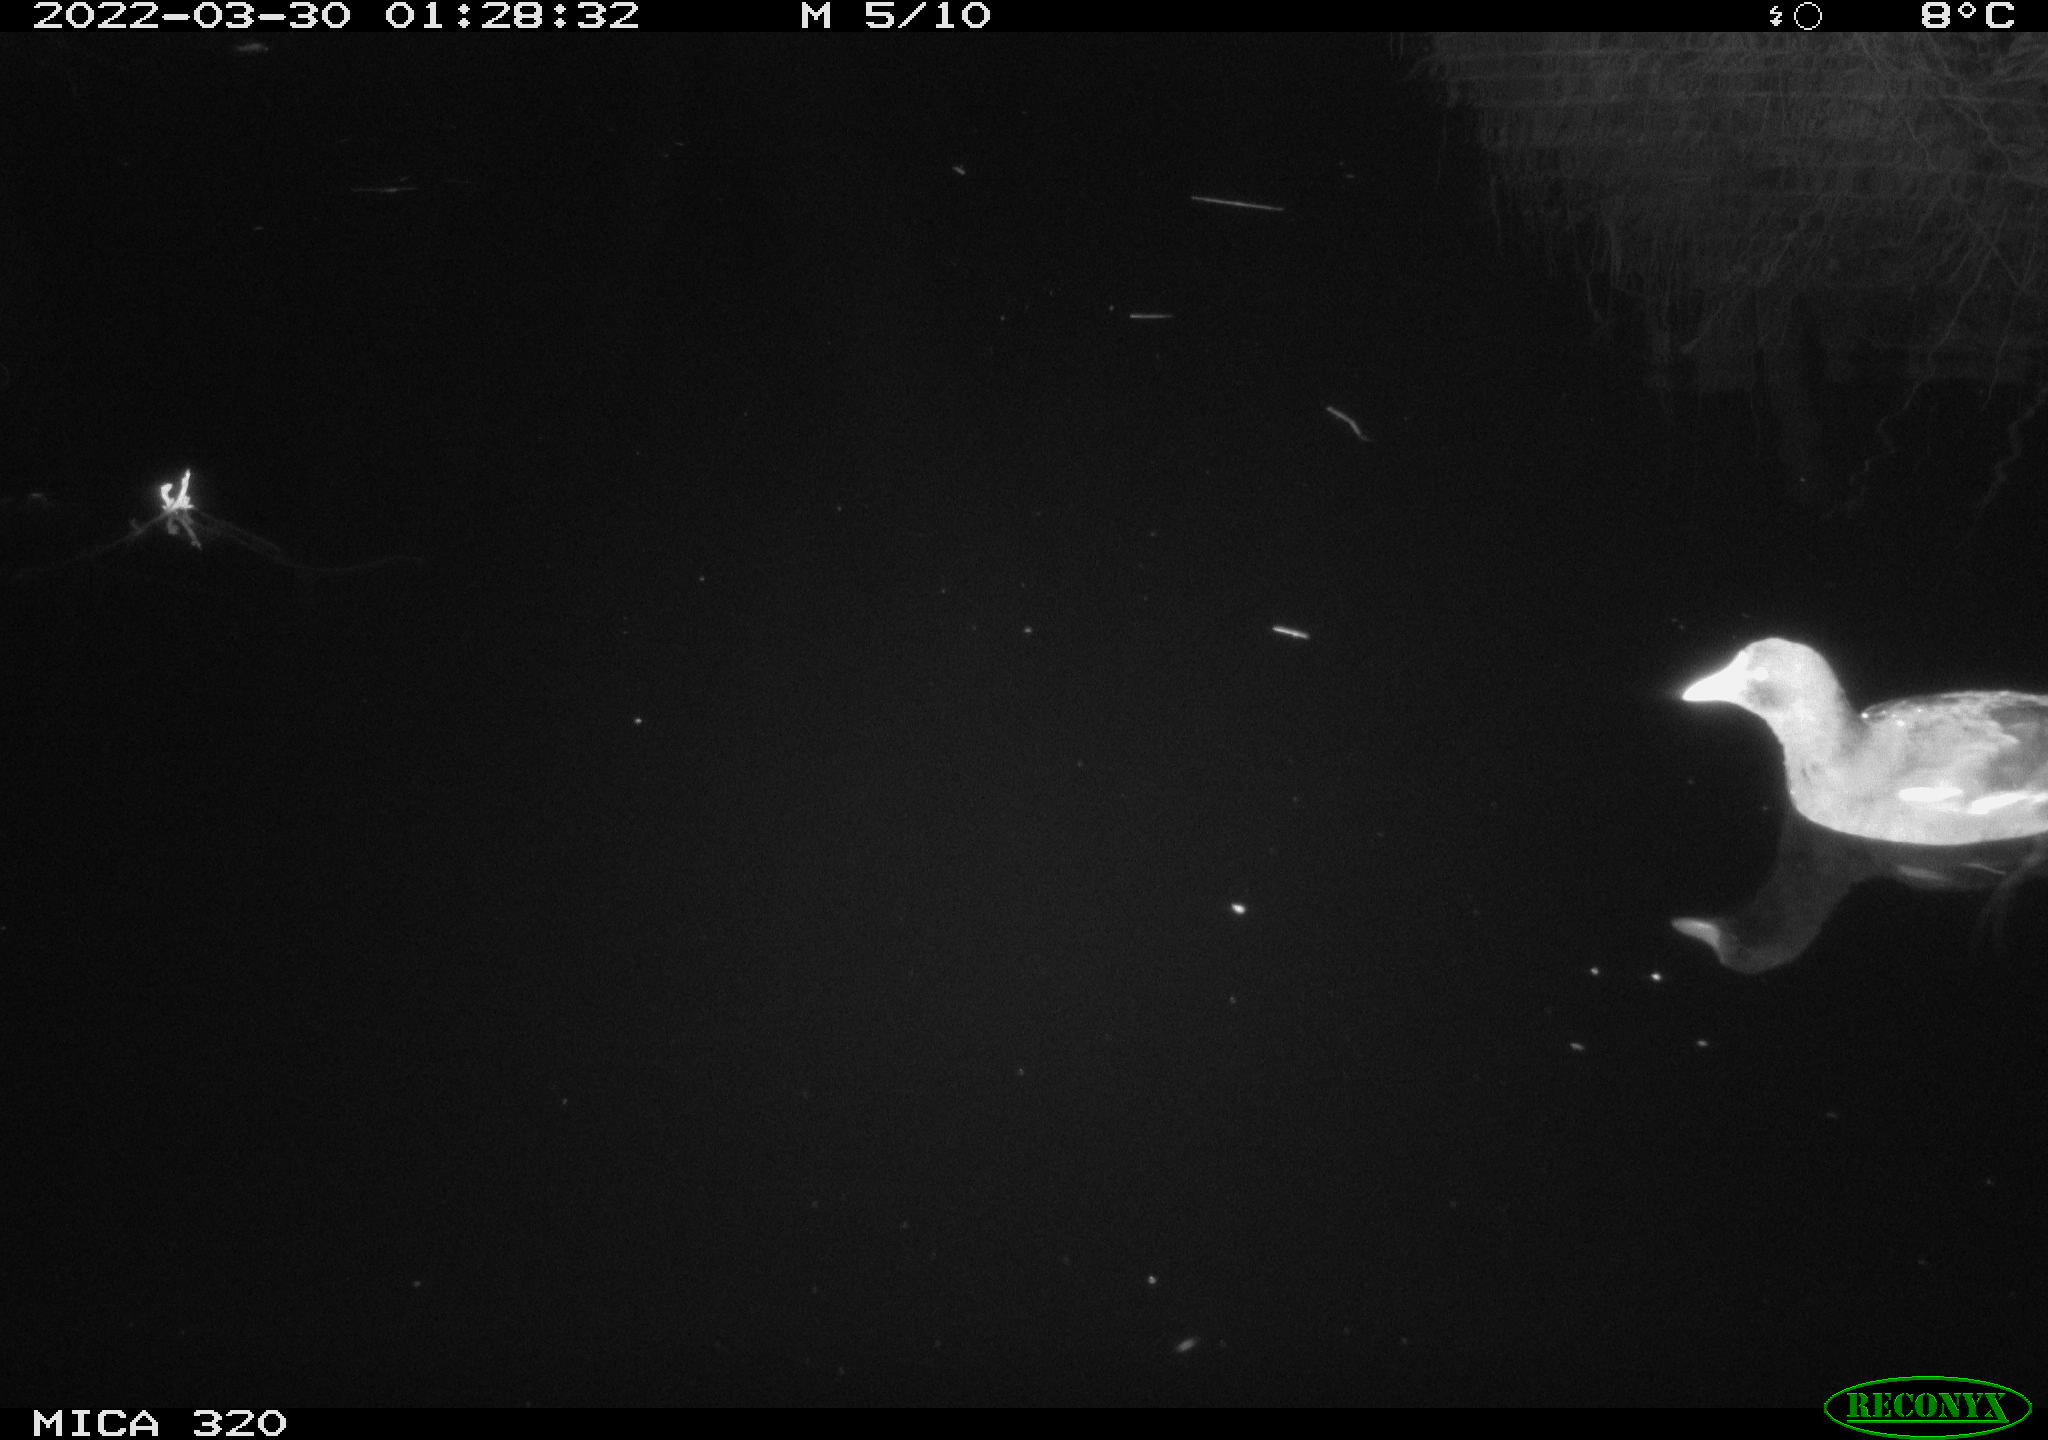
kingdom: Animalia
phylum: Chordata
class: Aves
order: Gruiformes
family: Rallidae
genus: Gallinula
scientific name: Gallinula chloropus
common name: Common moorhen
